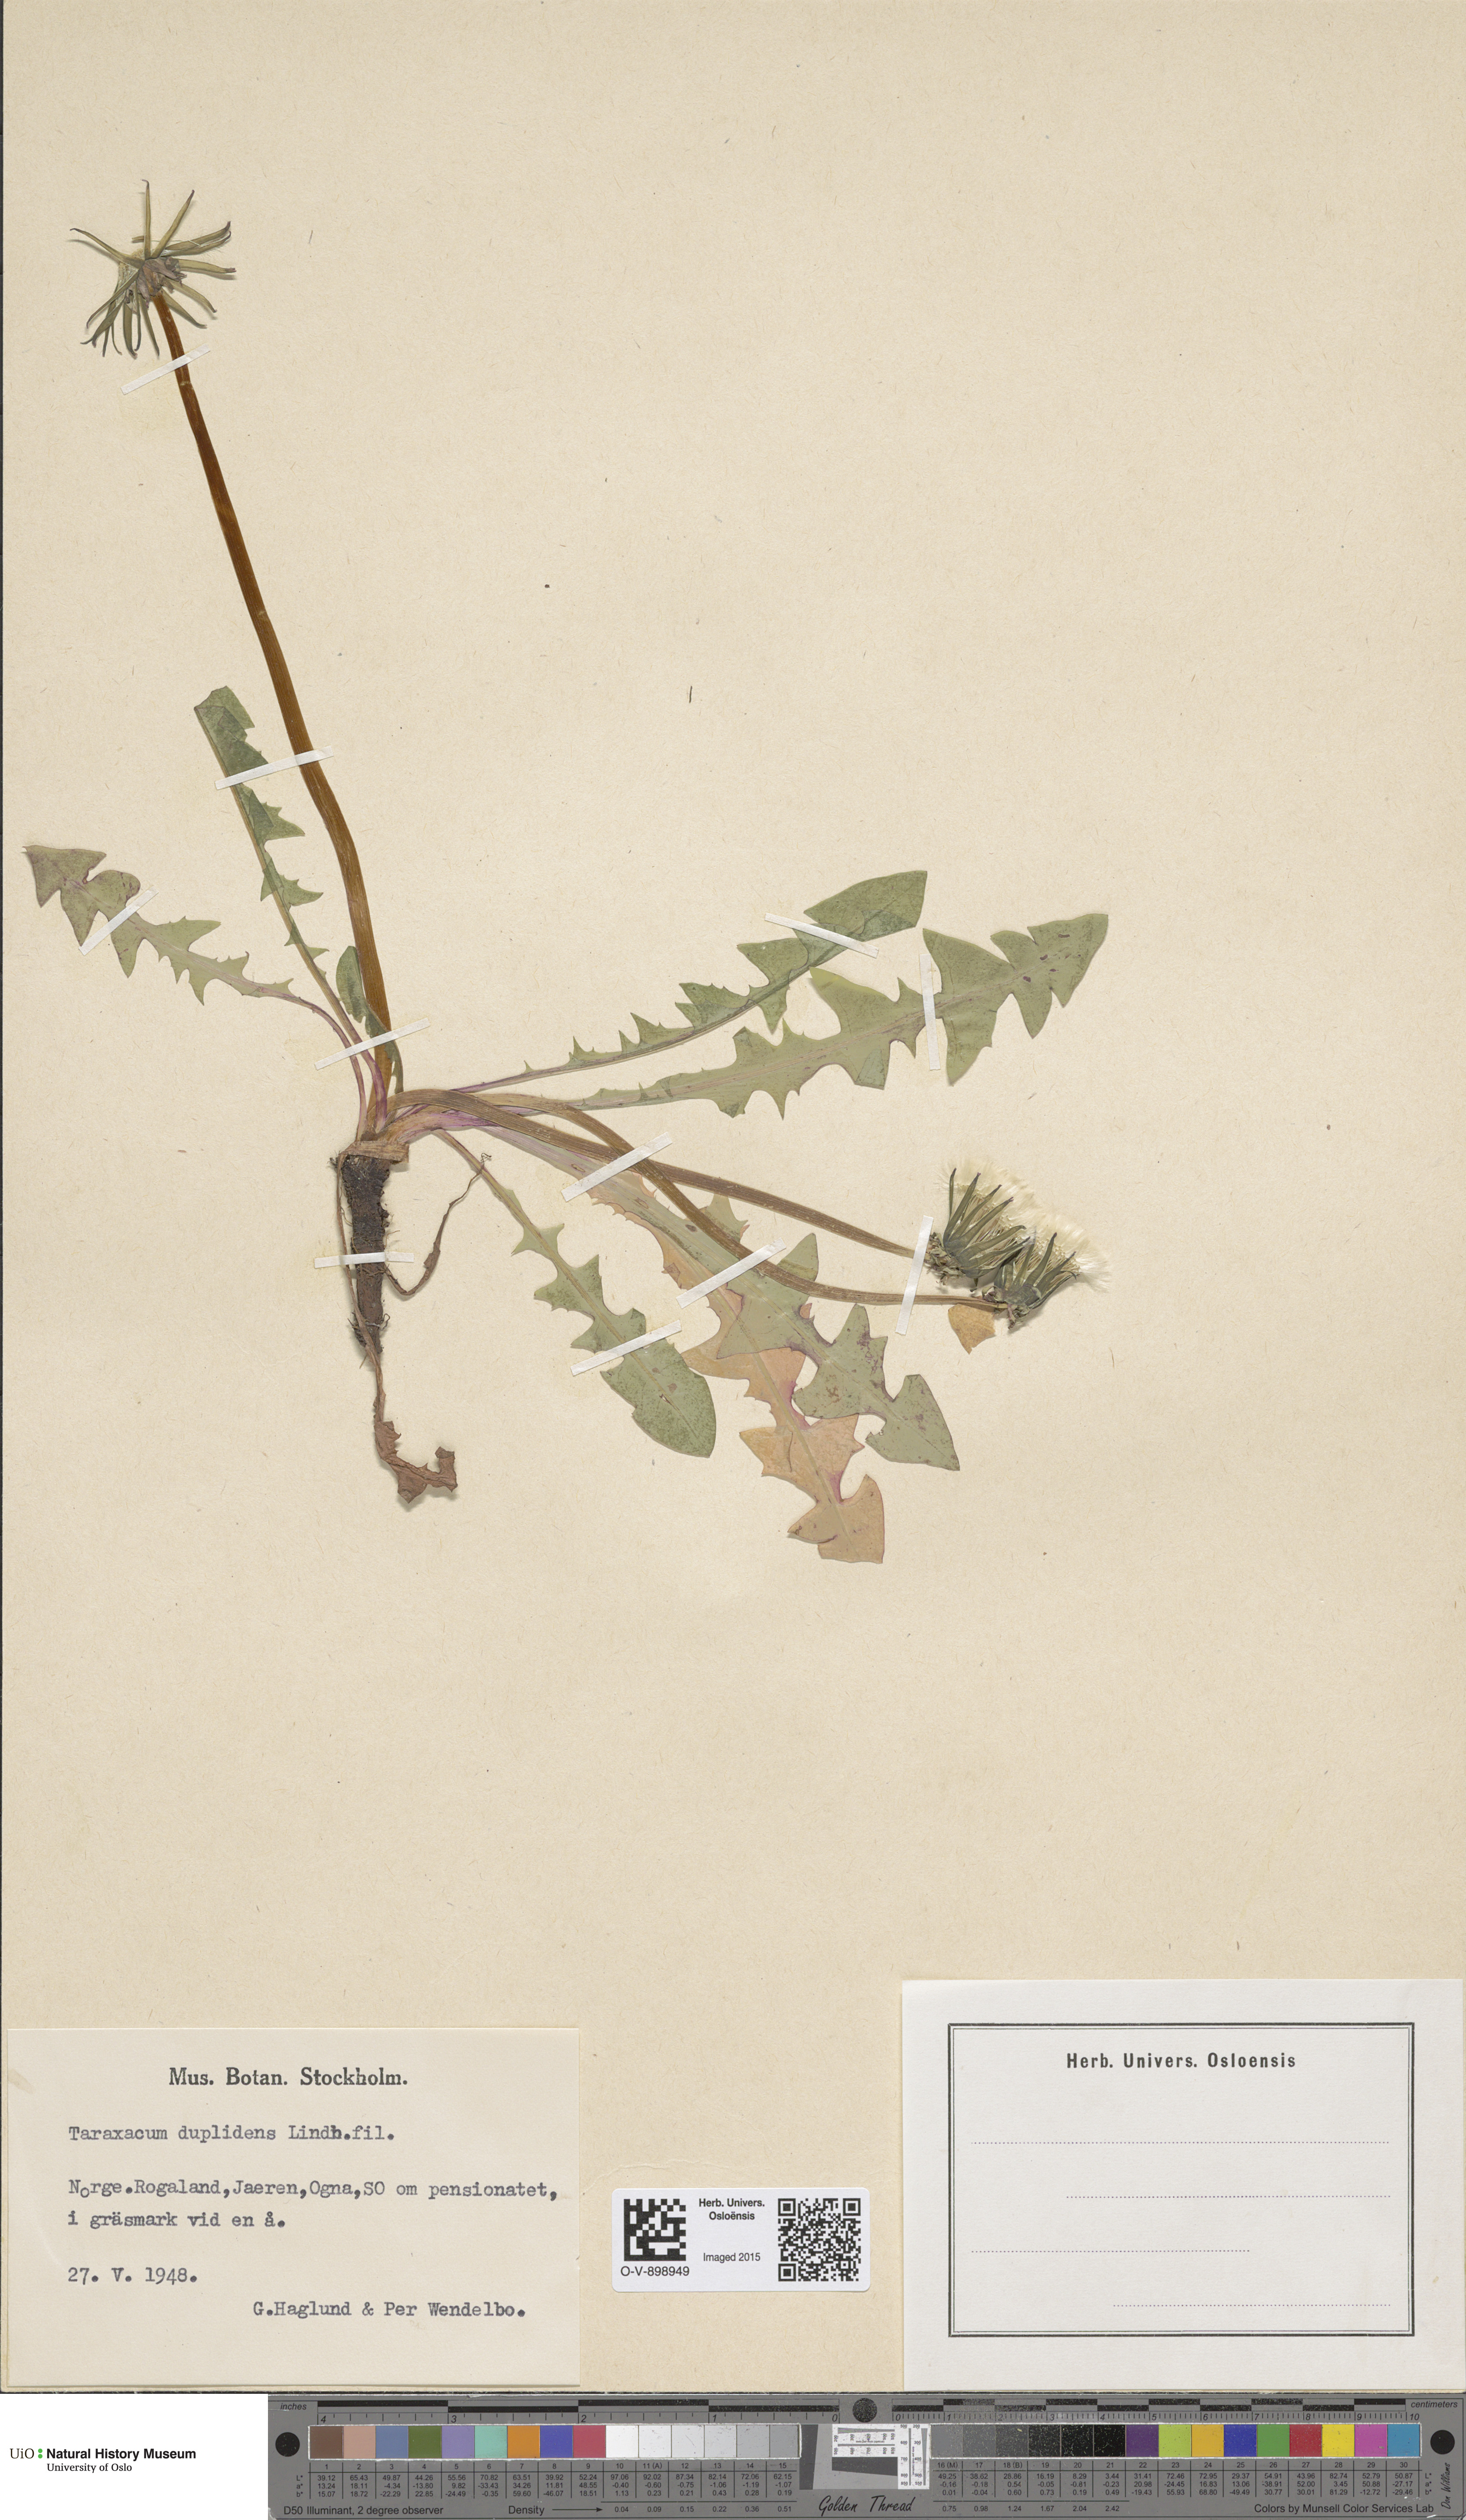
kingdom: Plantae
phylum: Tracheophyta
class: Magnoliopsida
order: Asterales
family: Asteraceae
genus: Taraxacum
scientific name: Taraxacum ostenfeldii
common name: Ostenfeld's dandelion
